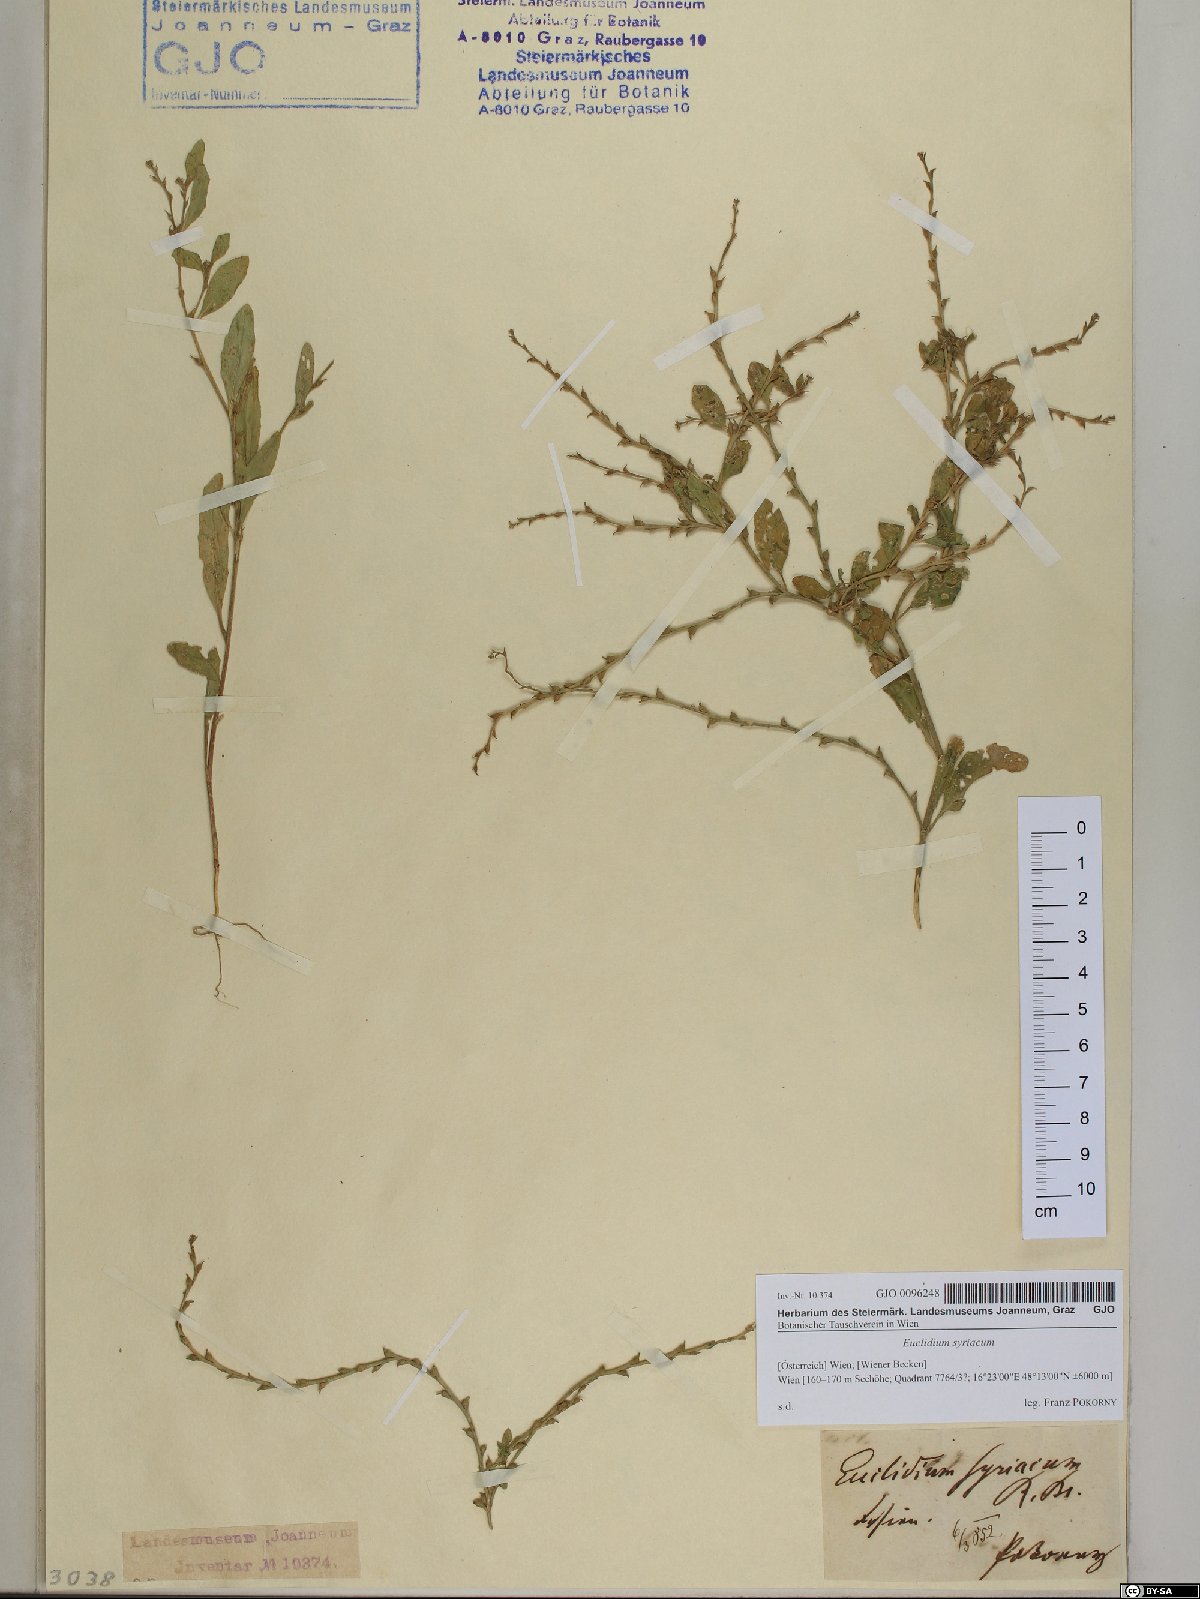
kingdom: Plantae
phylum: Tracheophyta
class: Magnoliopsida
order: Brassicales
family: Brassicaceae
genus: Euclidium
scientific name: Euclidium syriacum
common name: Syrian mustard
